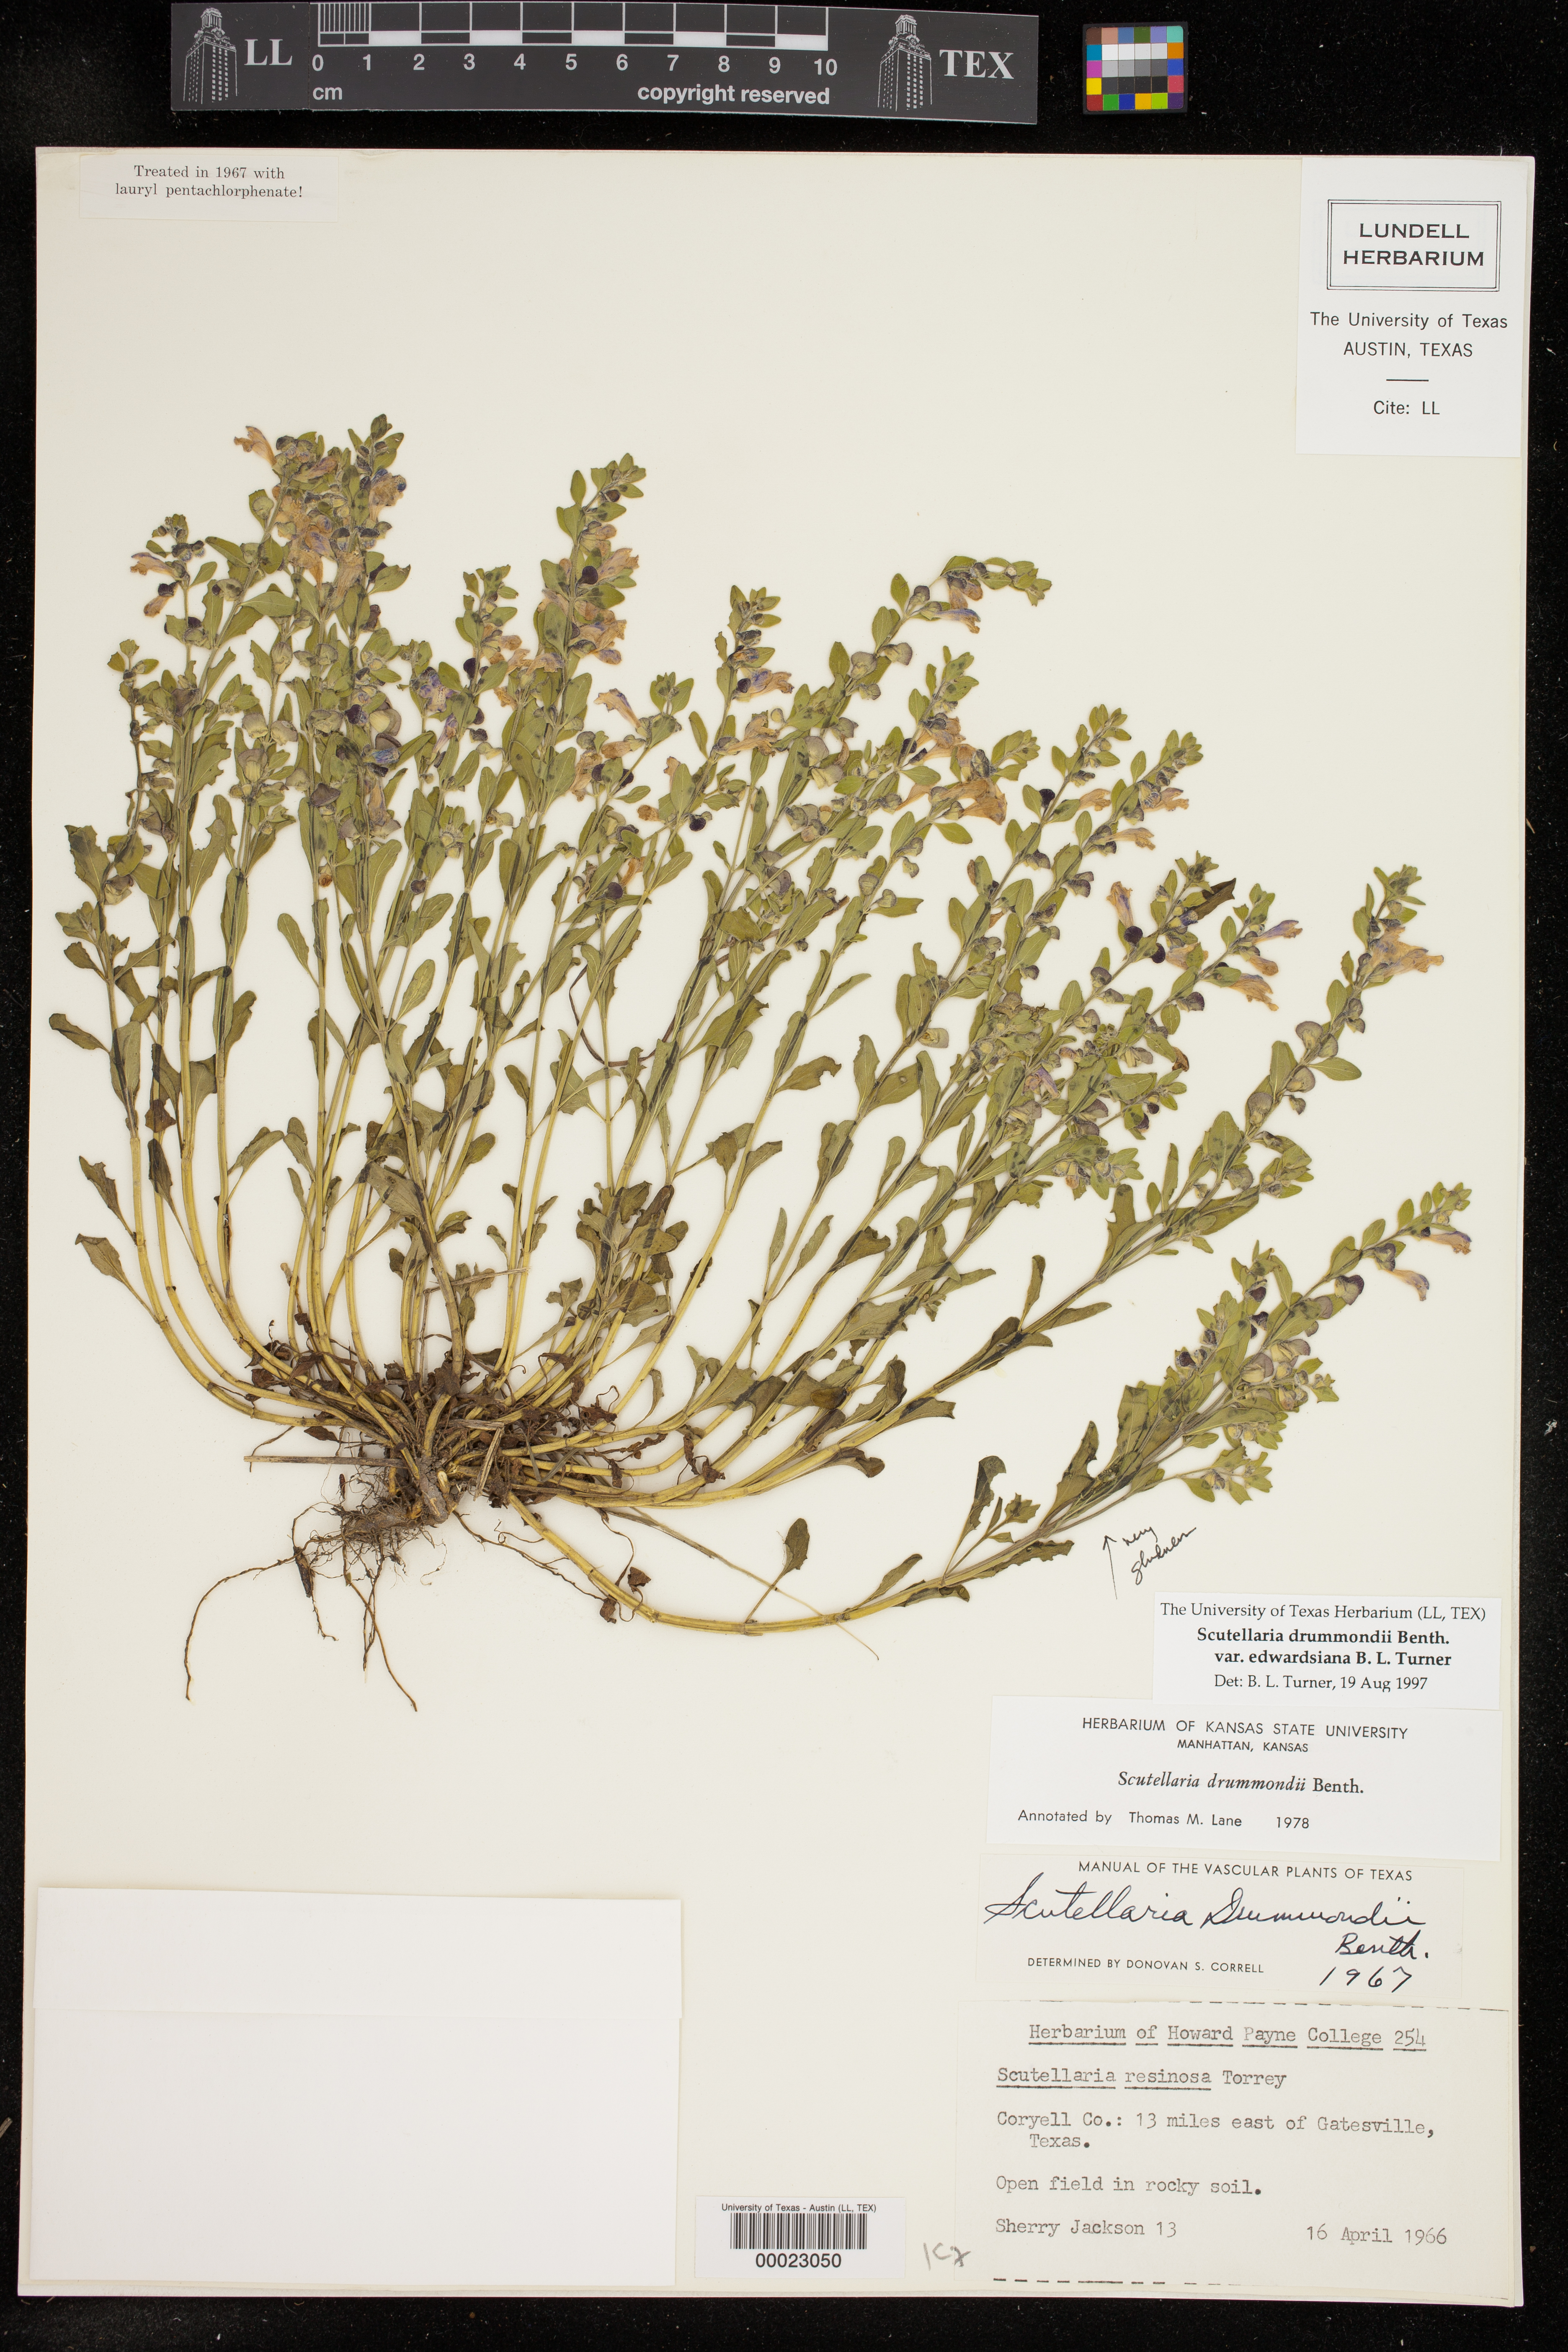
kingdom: Plantae
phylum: Tracheophyta
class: Magnoliopsida
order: Lamiales
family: Lamiaceae
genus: Scutellaria
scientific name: Scutellaria drummondii
